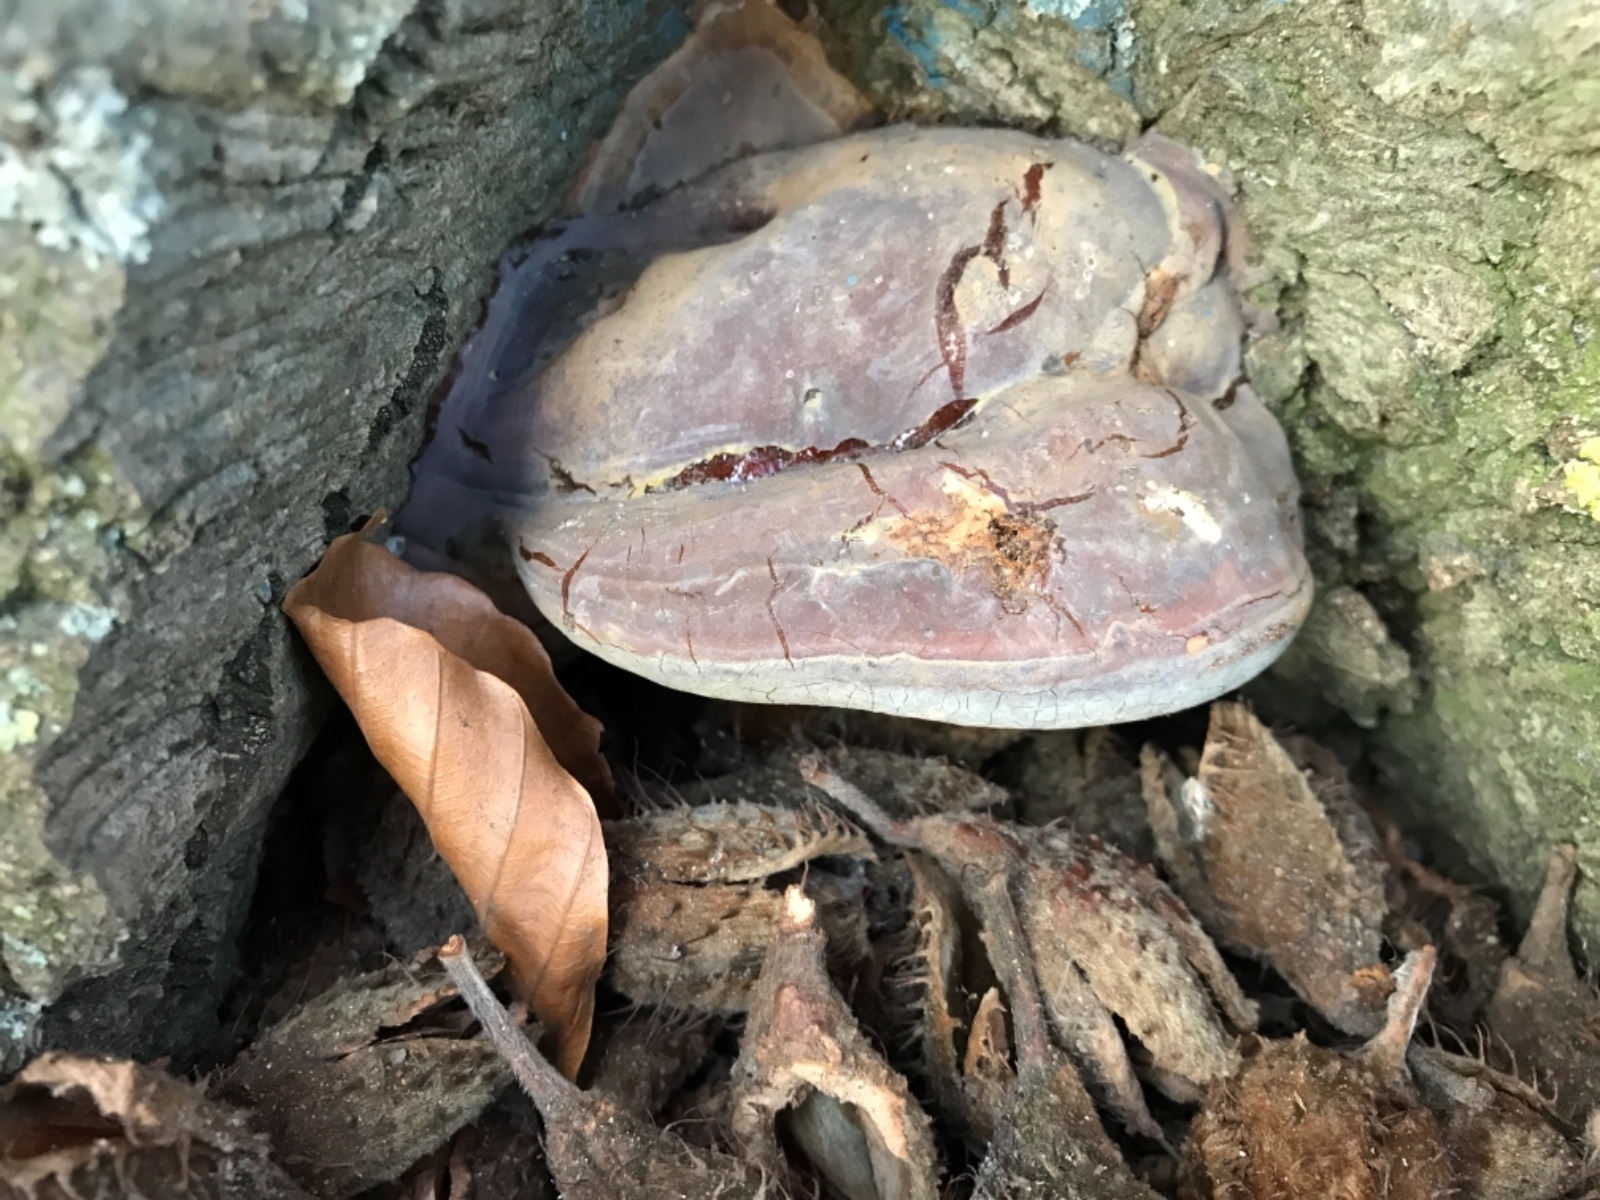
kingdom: Fungi
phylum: Basidiomycota
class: Agaricomycetes
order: Polyporales
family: Polyporaceae
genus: Ganoderma
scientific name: Ganoderma pfeifferi
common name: kobberrød lakporesvamp
